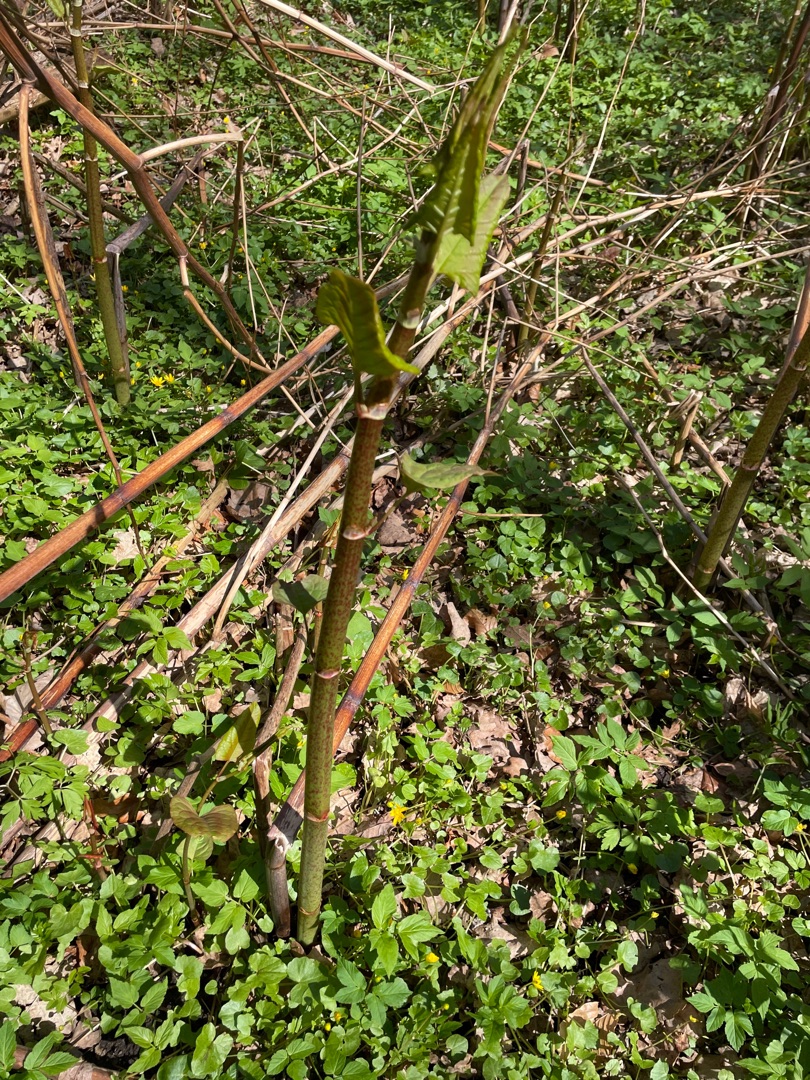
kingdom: Plantae
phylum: Tracheophyta
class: Magnoliopsida
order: Caryophyllales
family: Polygonaceae
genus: Reynoutria
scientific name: Reynoutria japonica
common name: Japan-pileurt
